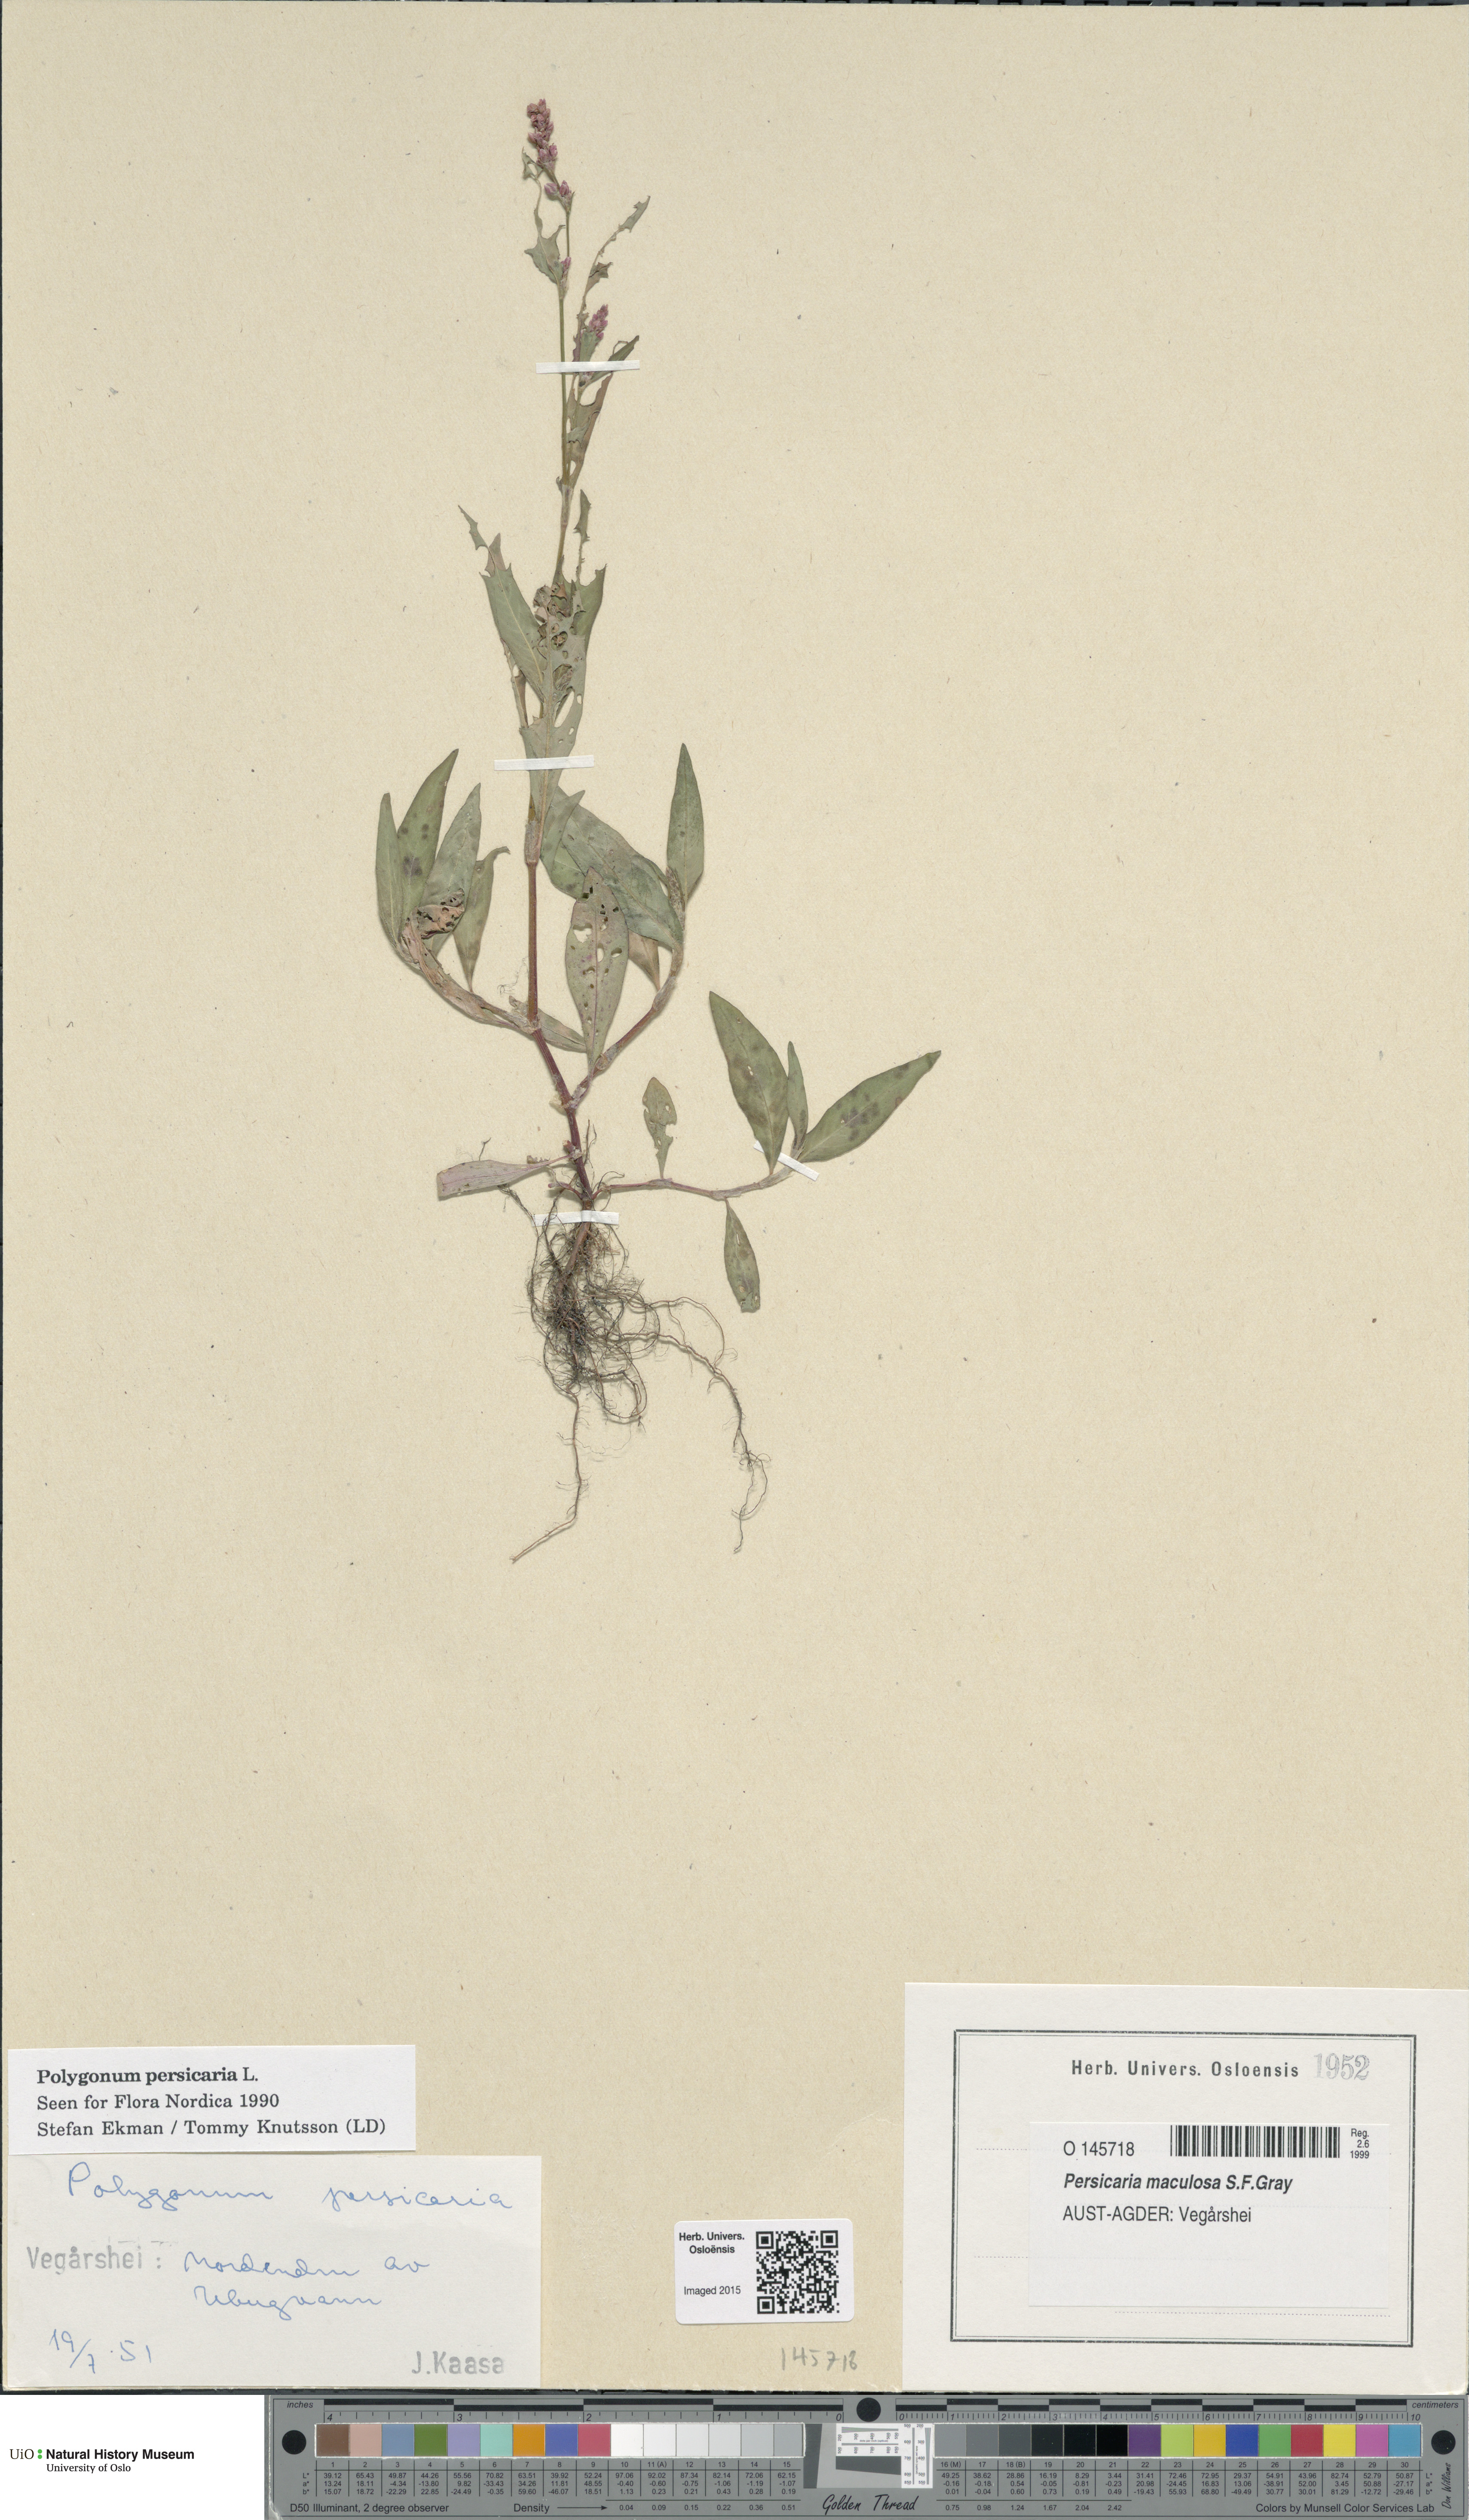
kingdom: Plantae
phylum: Tracheophyta
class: Magnoliopsida
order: Caryophyllales
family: Polygonaceae
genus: Persicaria
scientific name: Persicaria maculosa
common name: Redshank
